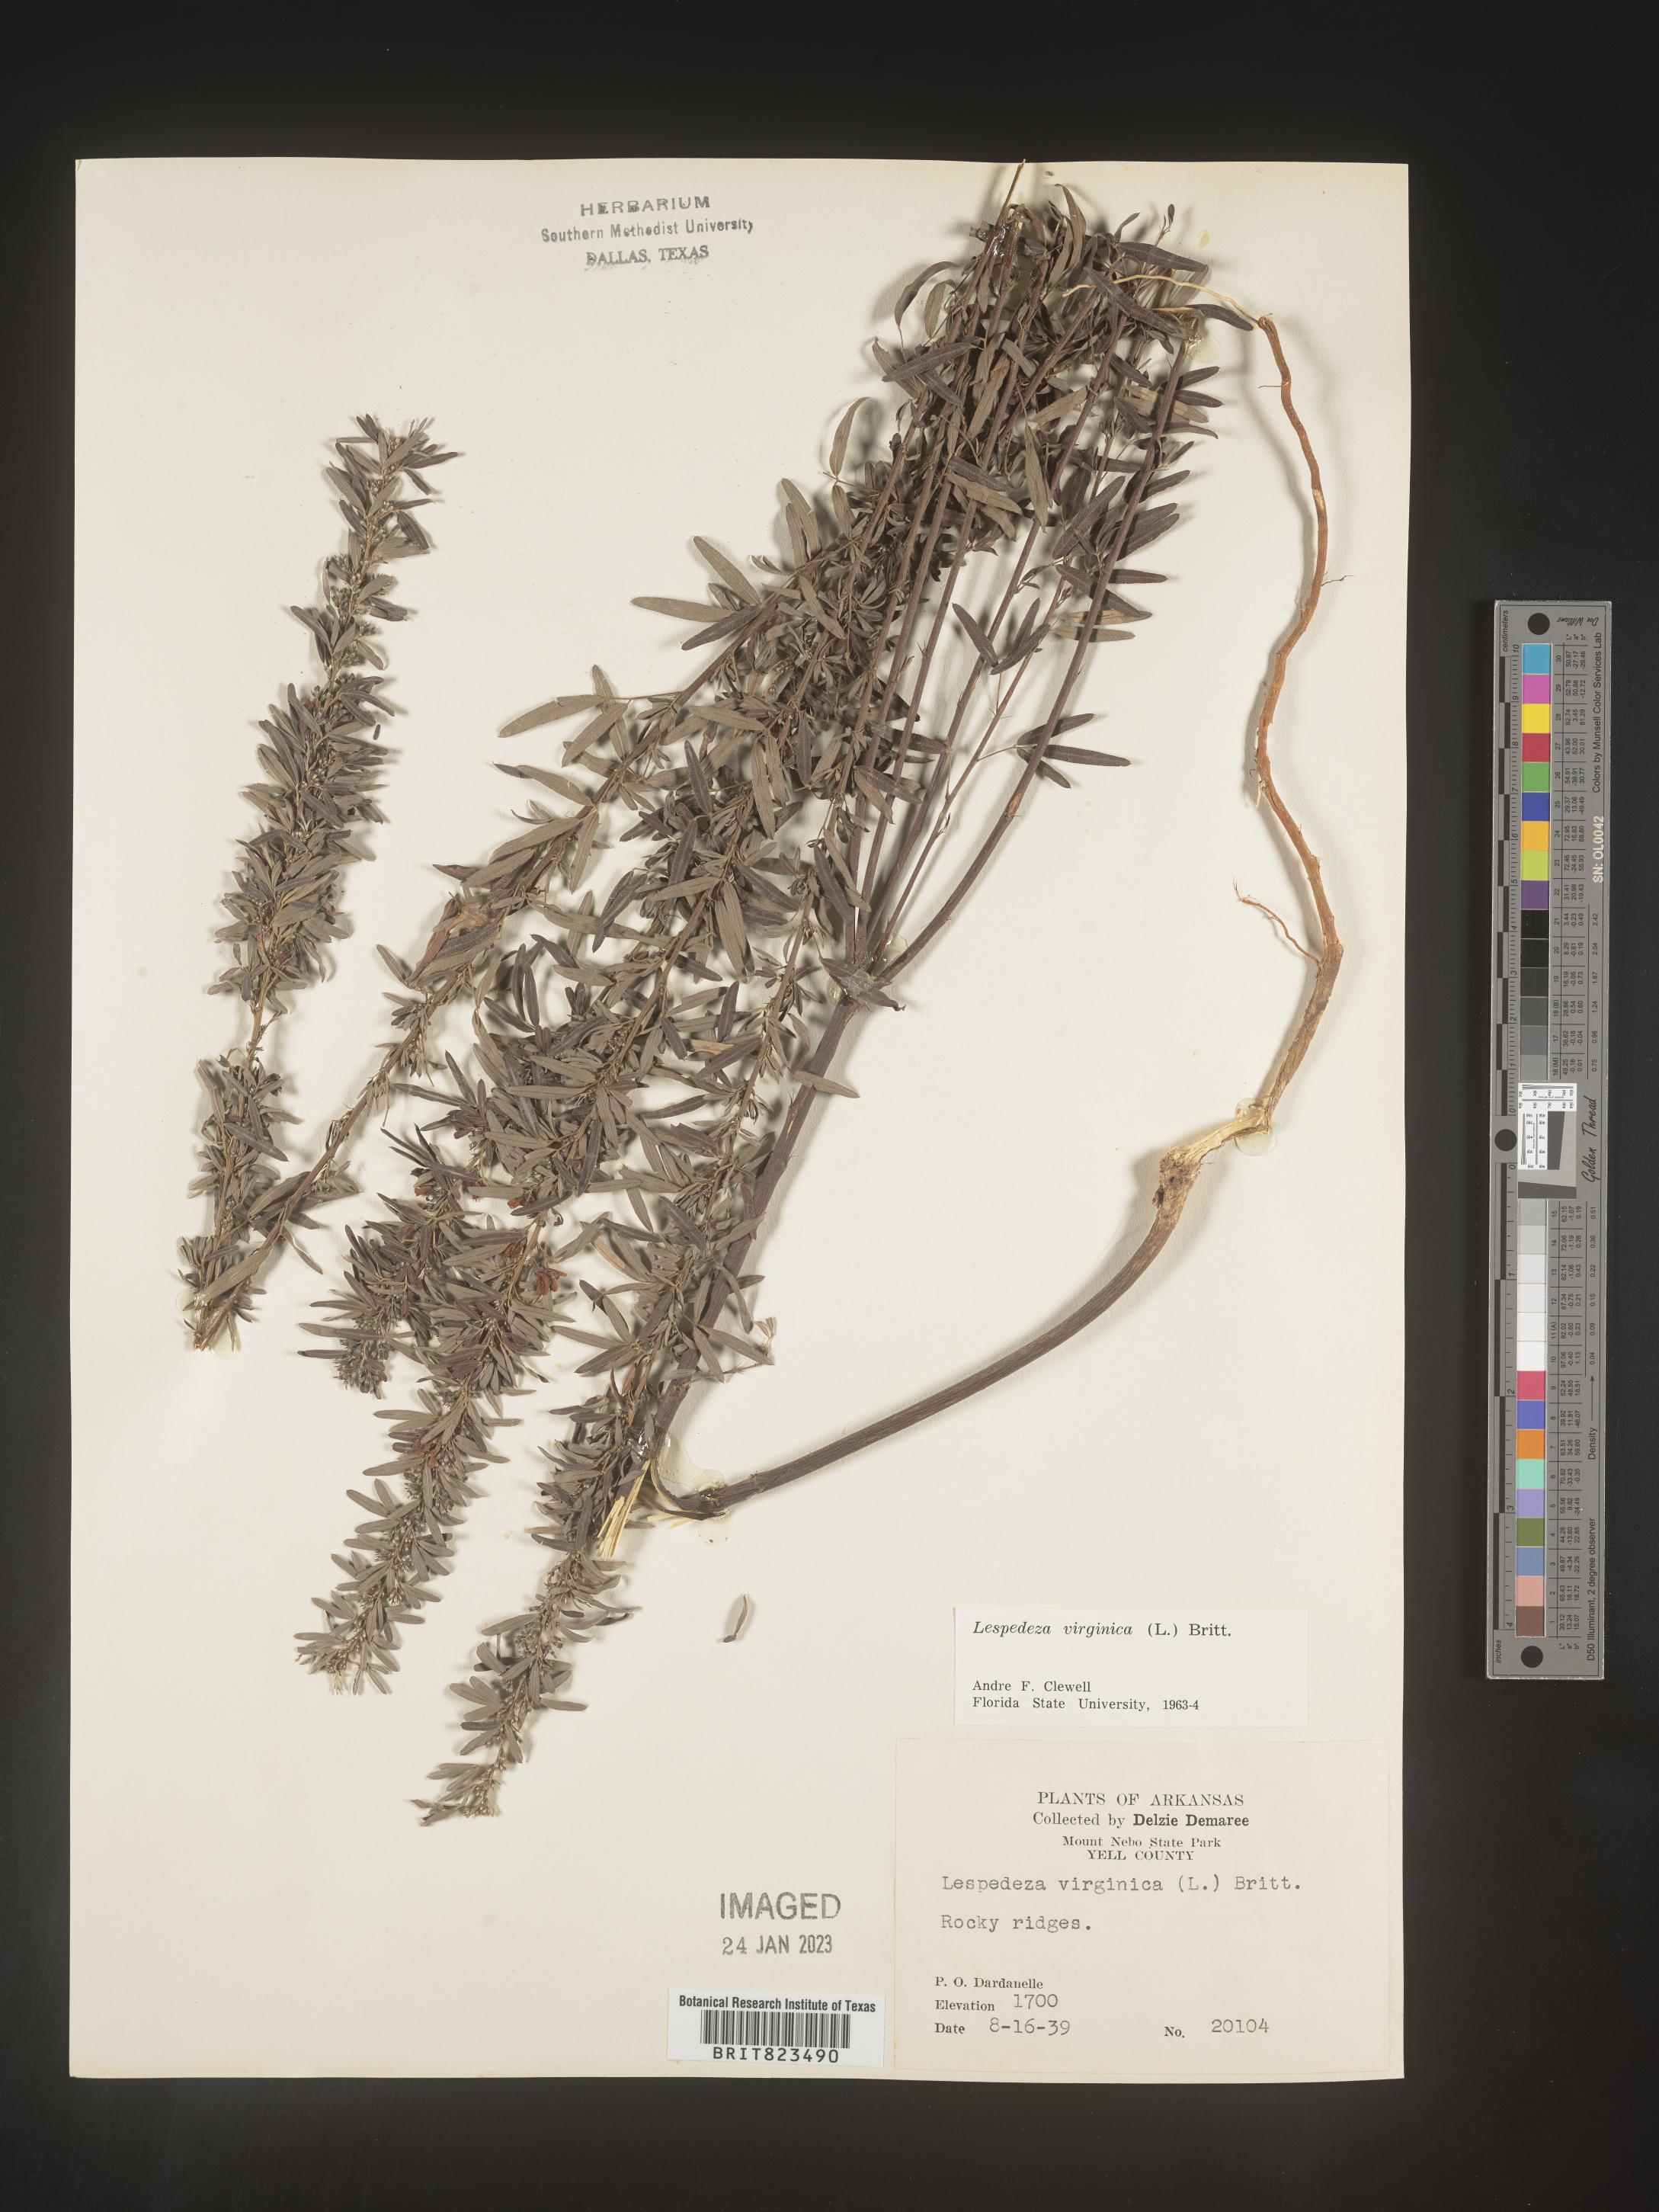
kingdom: Plantae
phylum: Tracheophyta
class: Magnoliopsida
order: Fabales
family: Fabaceae
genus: Lespedeza
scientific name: Lespedeza virginica
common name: Slender bush-clover
